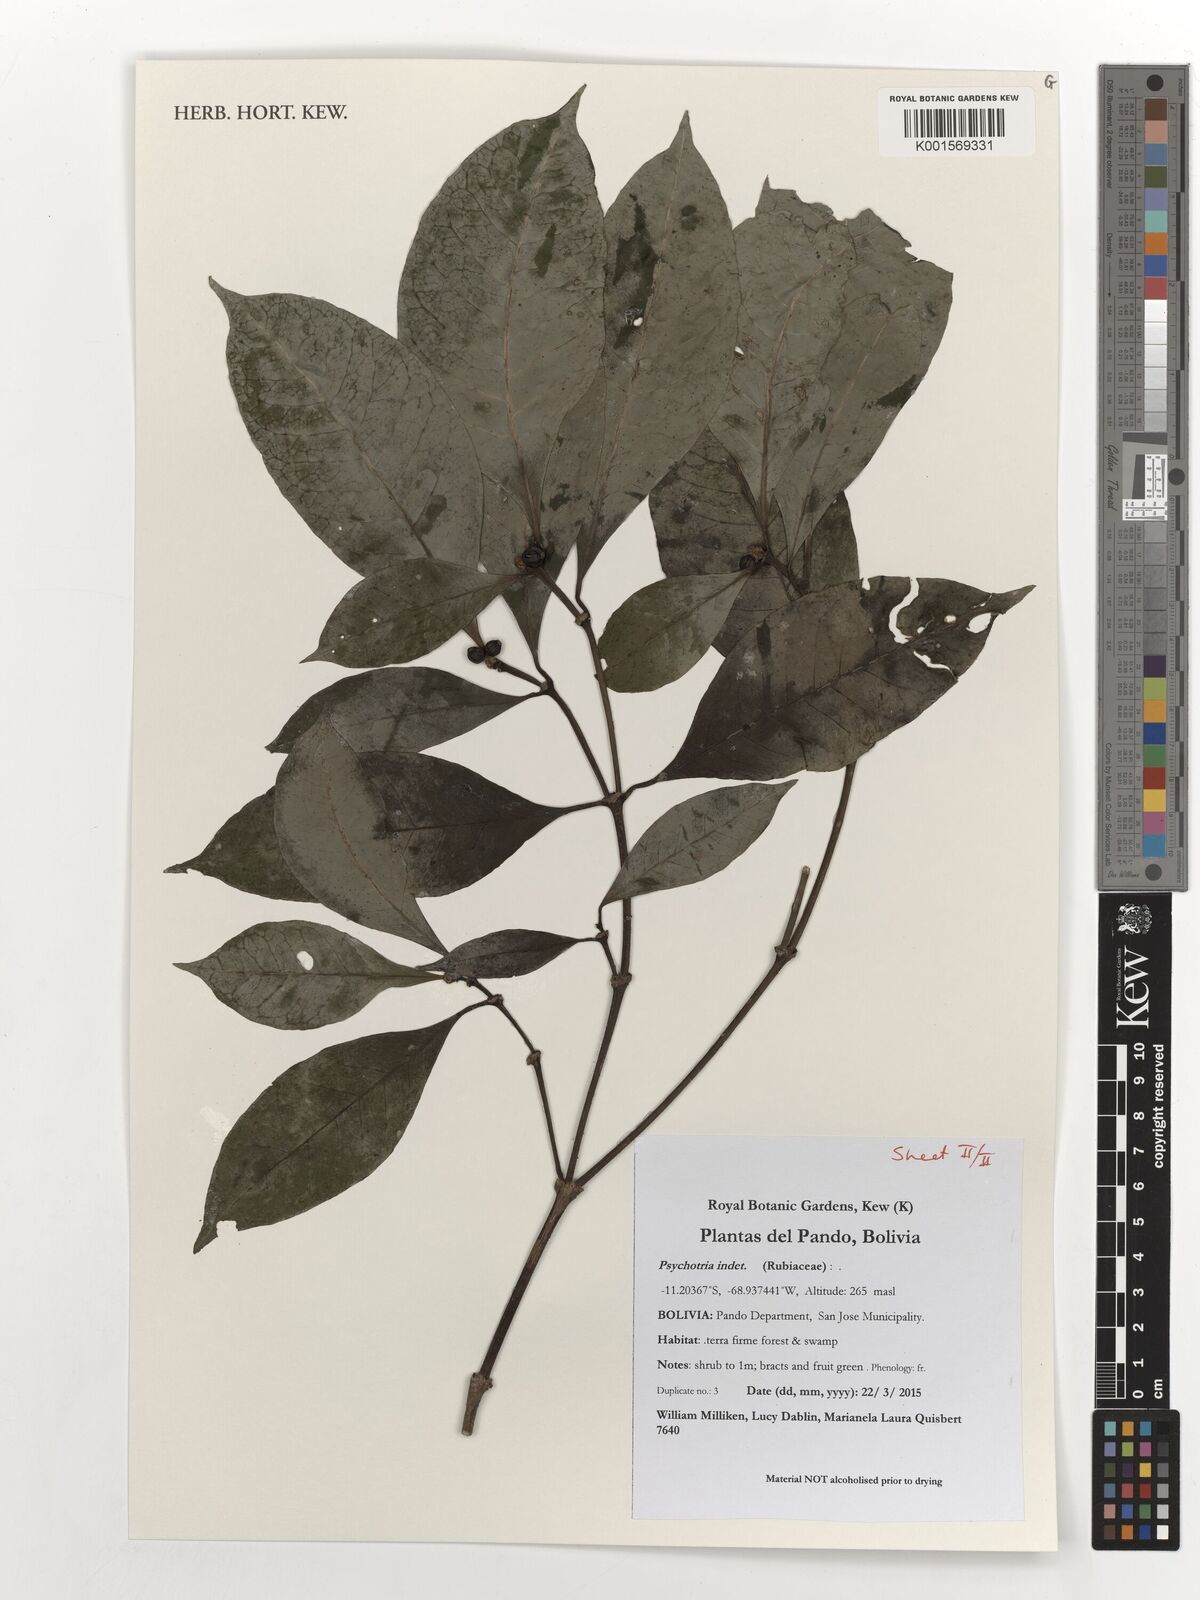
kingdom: Plantae
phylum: Tracheophyta
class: Magnoliopsida
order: Gentianales
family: Rubiaceae
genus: Psychotria
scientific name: Psychotria
